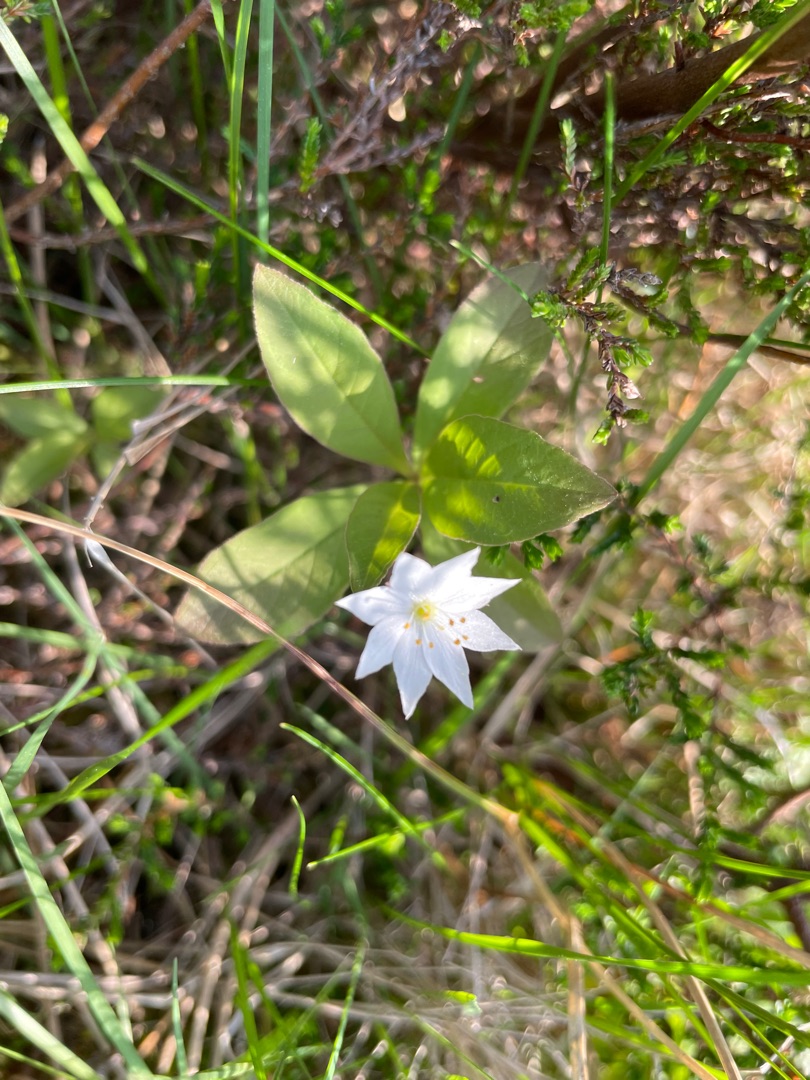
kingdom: Plantae
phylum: Tracheophyta
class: Magnoliopsida
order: Ericales
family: Primulaceae
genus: Lysimachia
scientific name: Lysimachia europaea
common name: Skovstjerne
